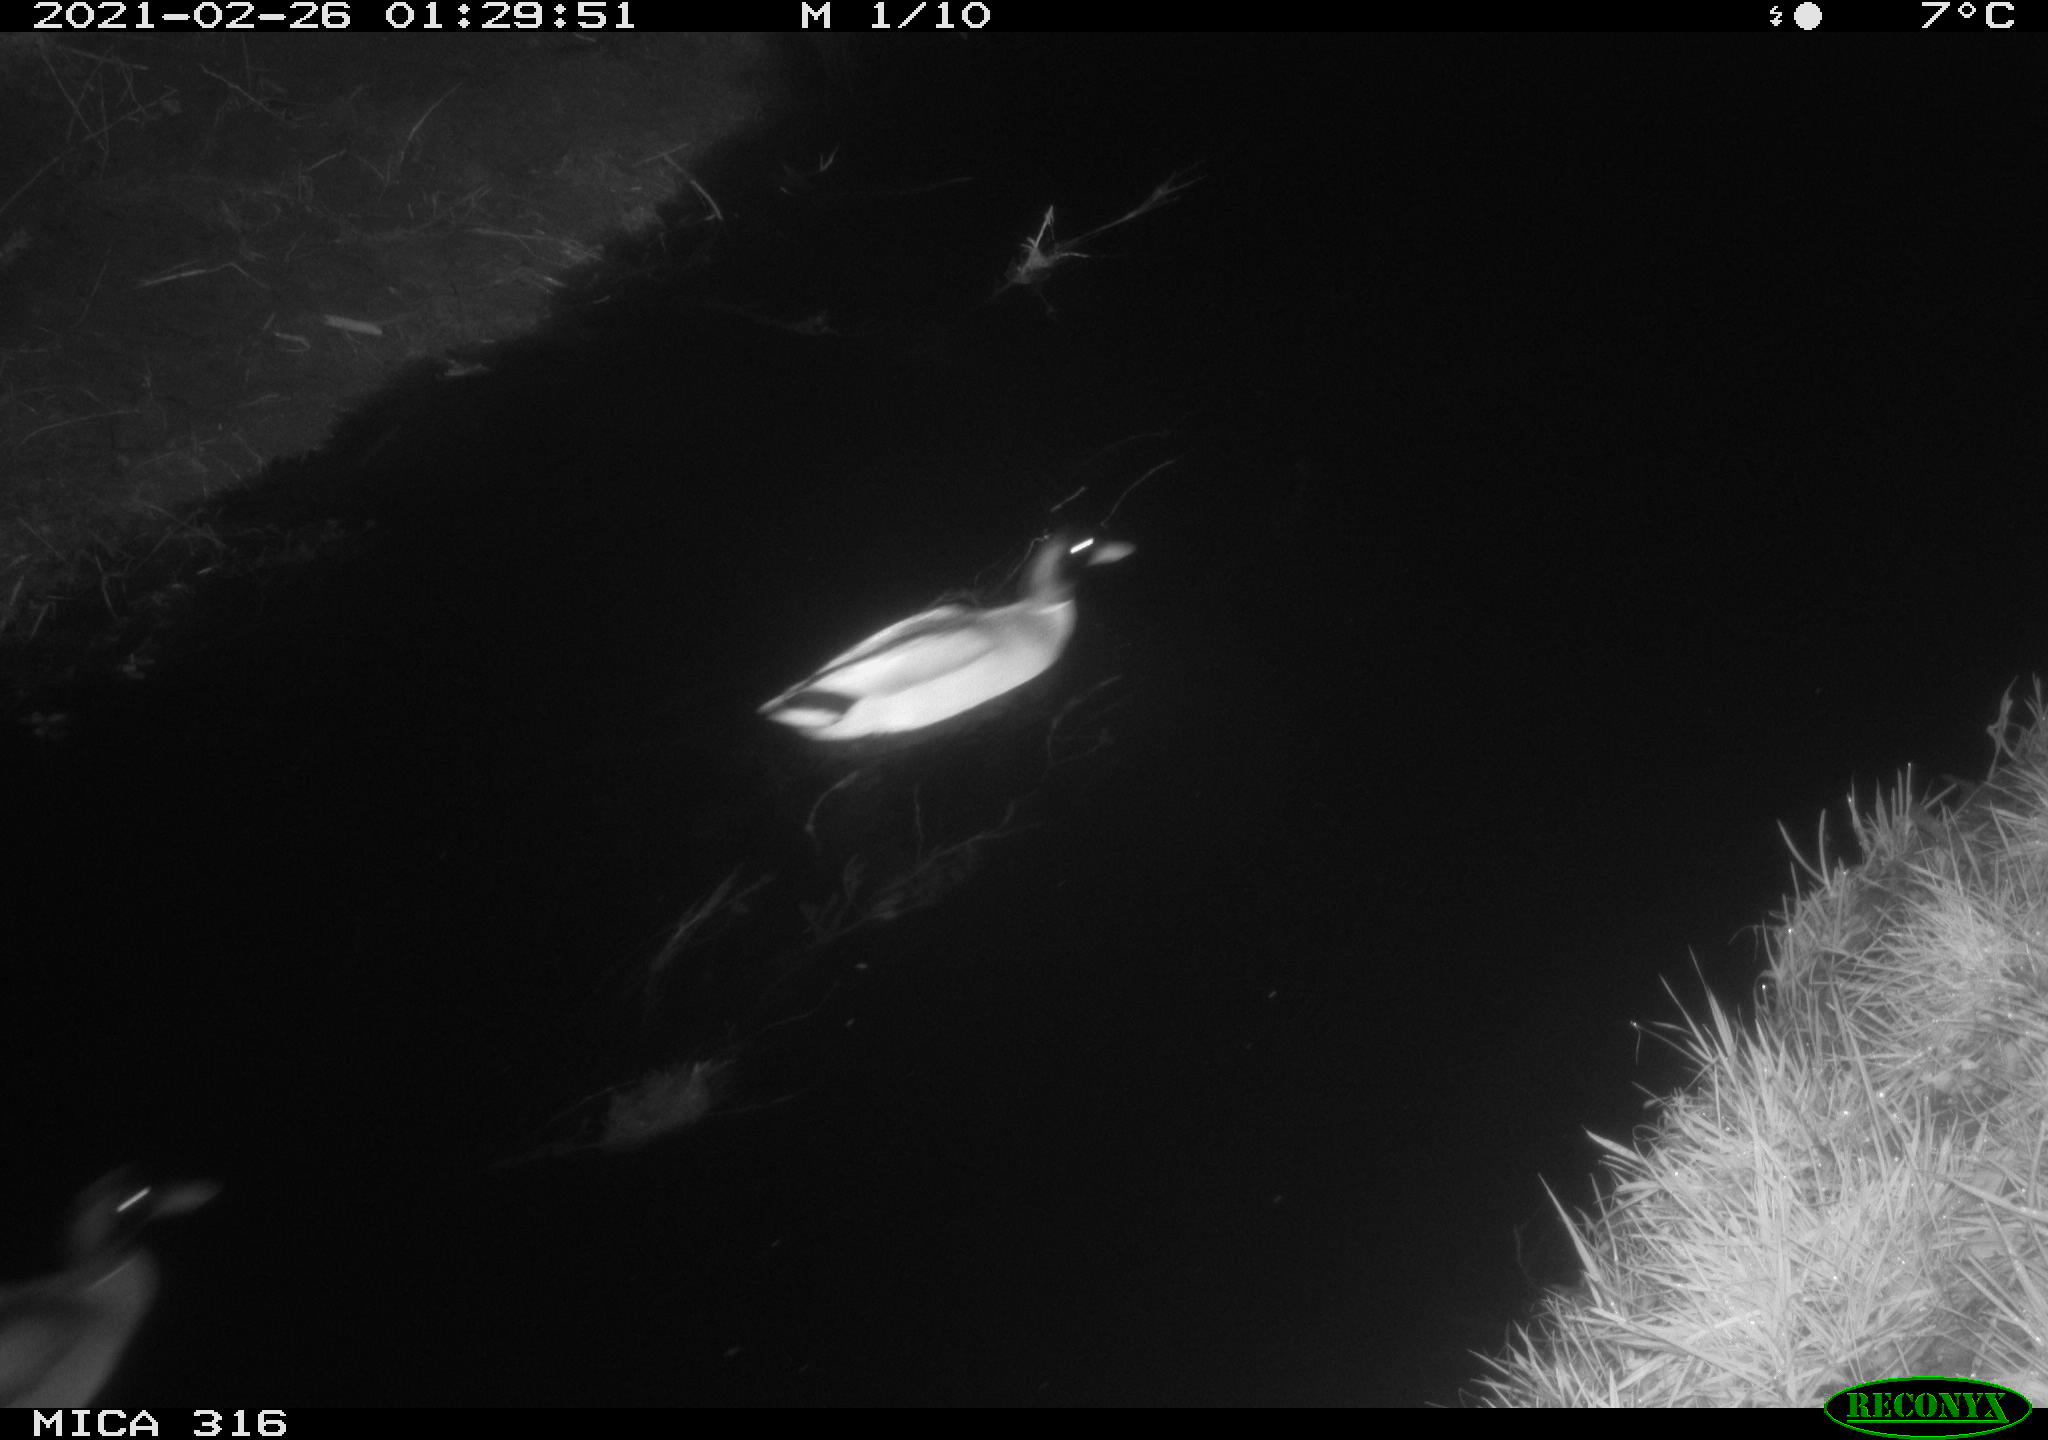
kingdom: Animalia
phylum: Chordata
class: Aves
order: Anseriformes
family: Anatidae
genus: Anas
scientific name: Anas platyrhynchos
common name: Mallard
